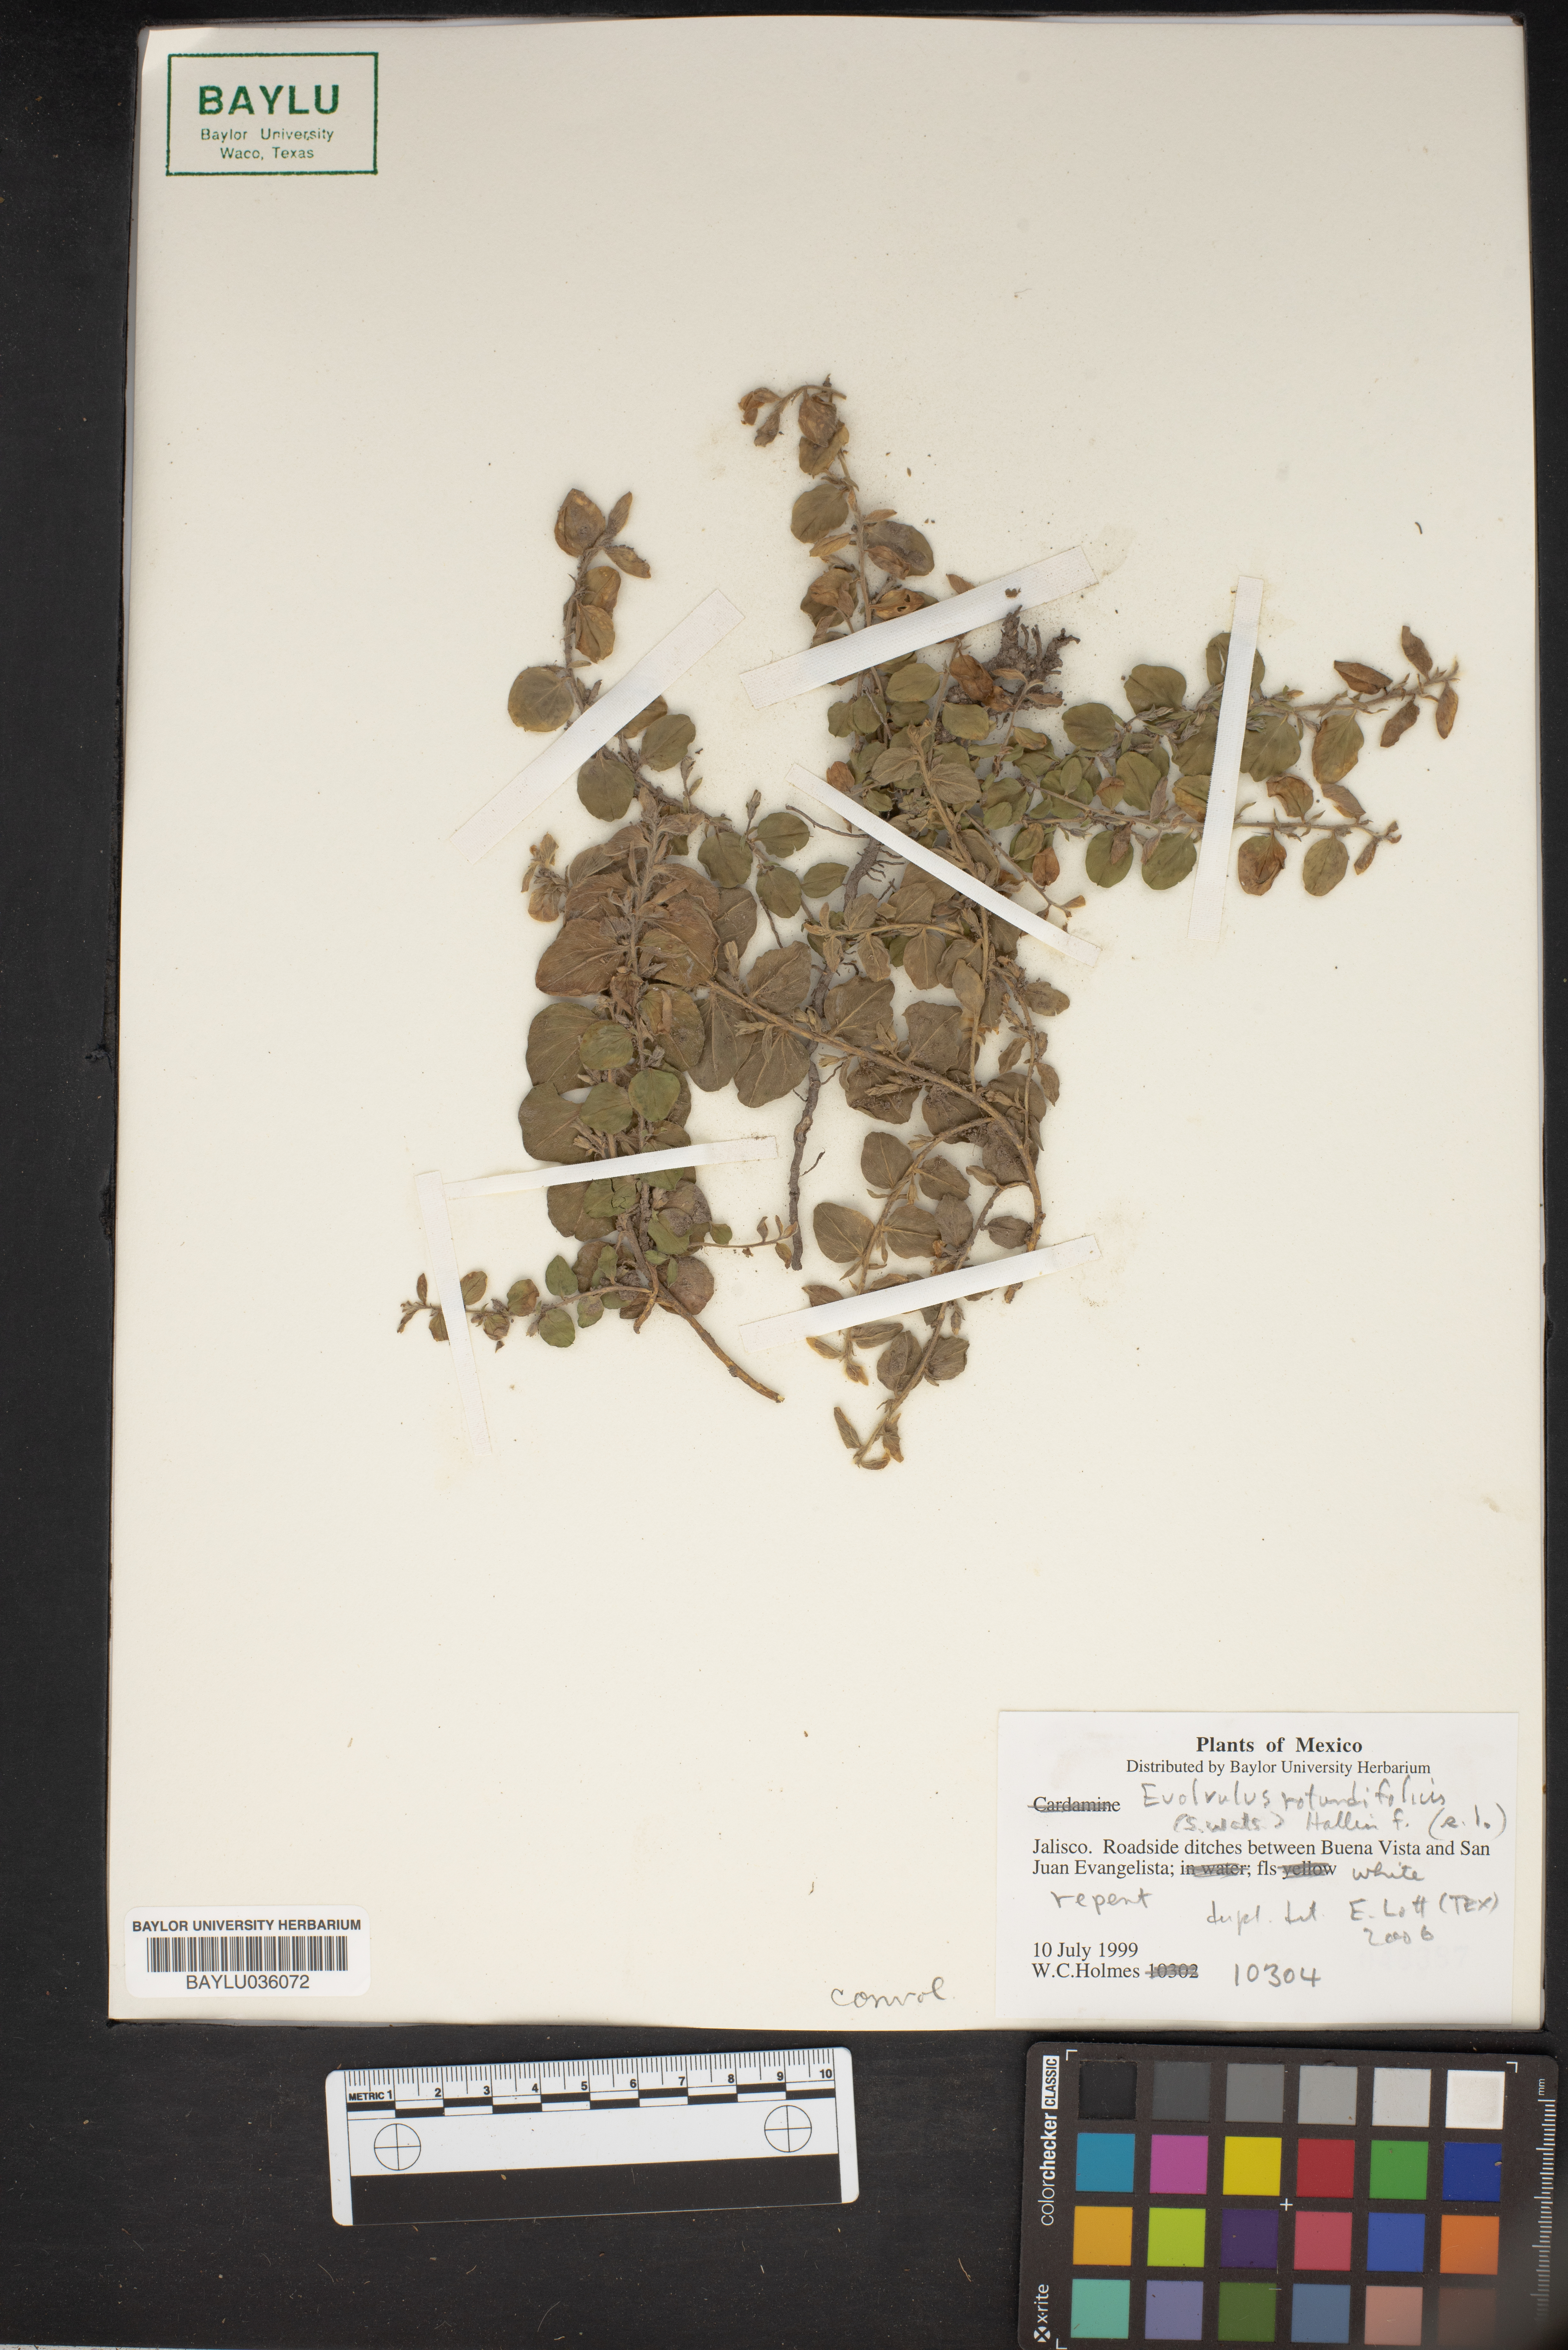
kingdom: Plantae
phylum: Tracheophyta
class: Magnoliopsida
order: Solanales
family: Convolvulaceae
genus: Evolvulus
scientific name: Evolvulus rotundifolius
